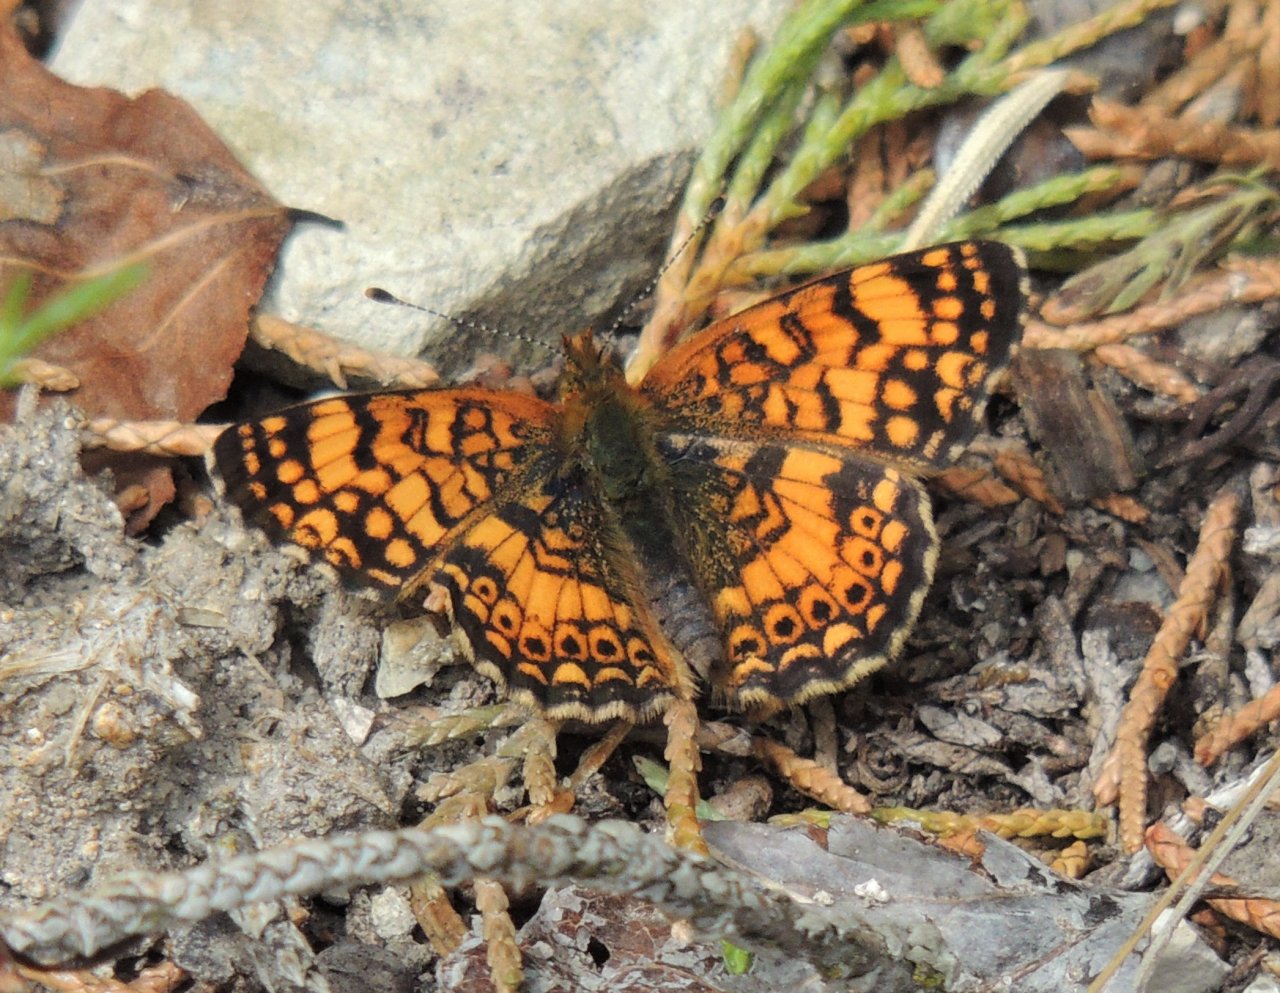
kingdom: Animalia
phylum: Arthropoda
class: Insecta
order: Lepidoptera
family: Nymphalidae
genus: Eresia
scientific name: Eresia aveyrona
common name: Mylitta Crescent
